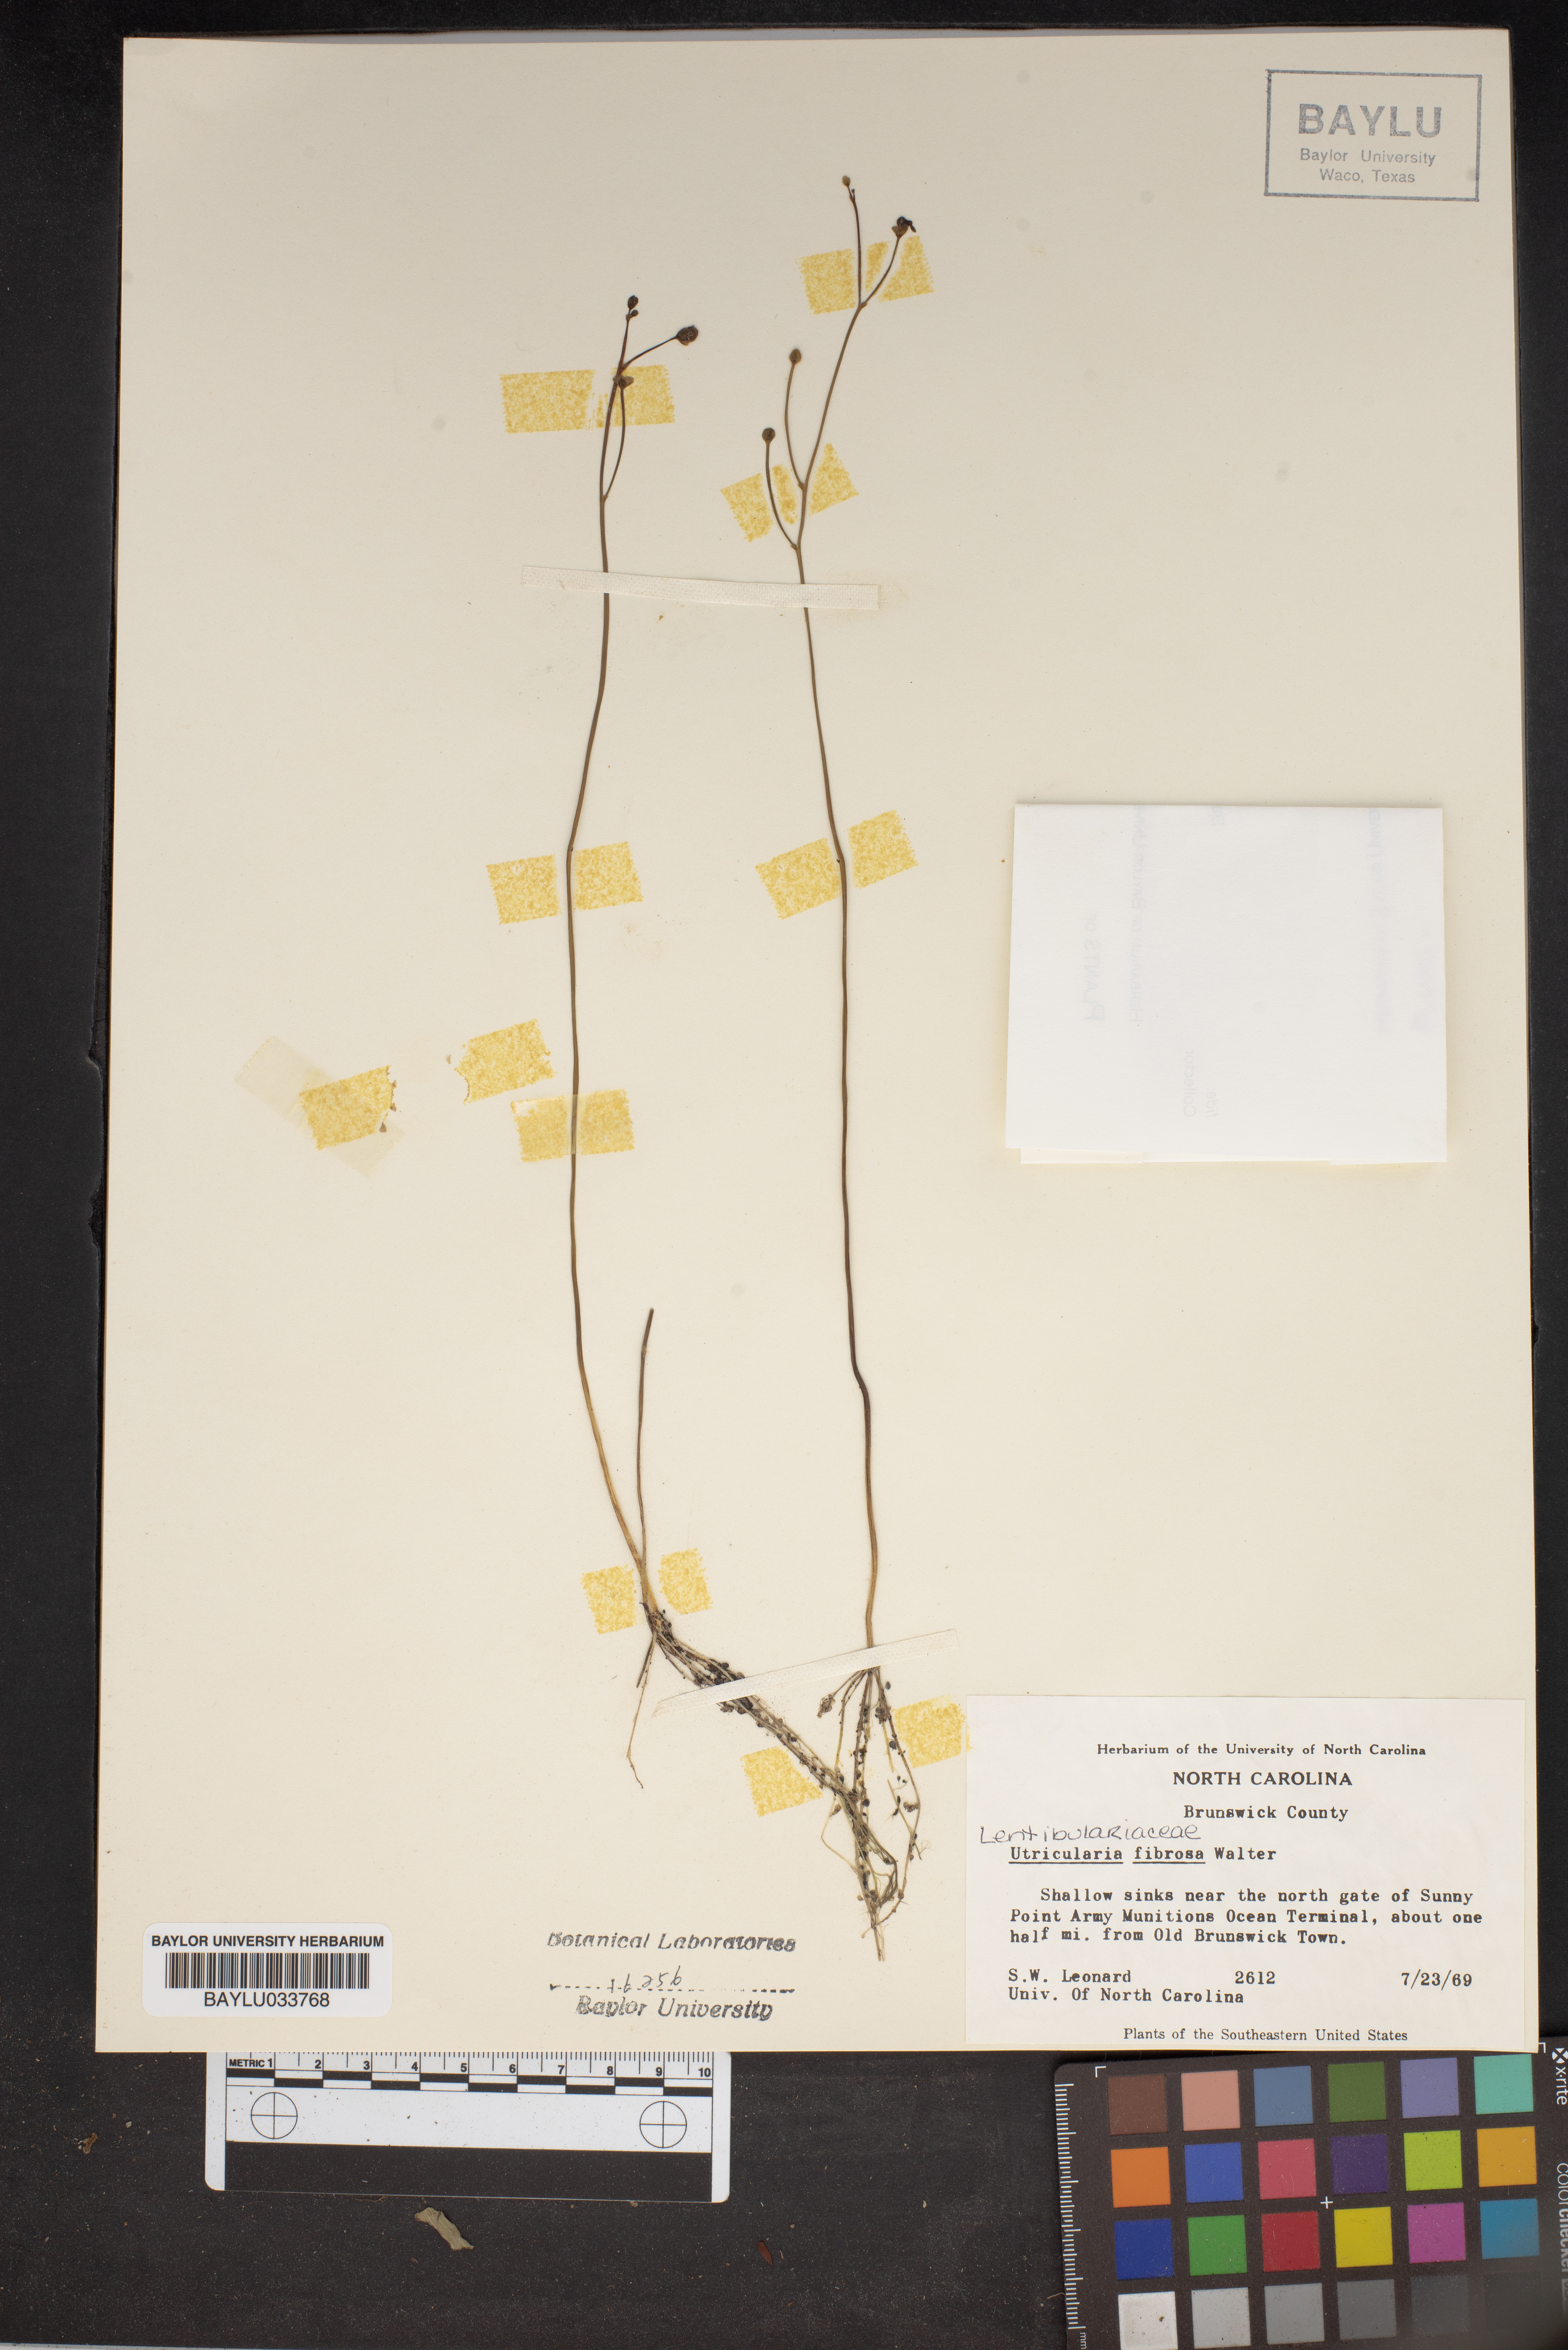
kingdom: Plantae
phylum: Tracheophyta
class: Magnoliopsida
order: Lamiales
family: Lentibulariaceae
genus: Utricularia
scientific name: Utricularia gibba
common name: Humped bladderwort
